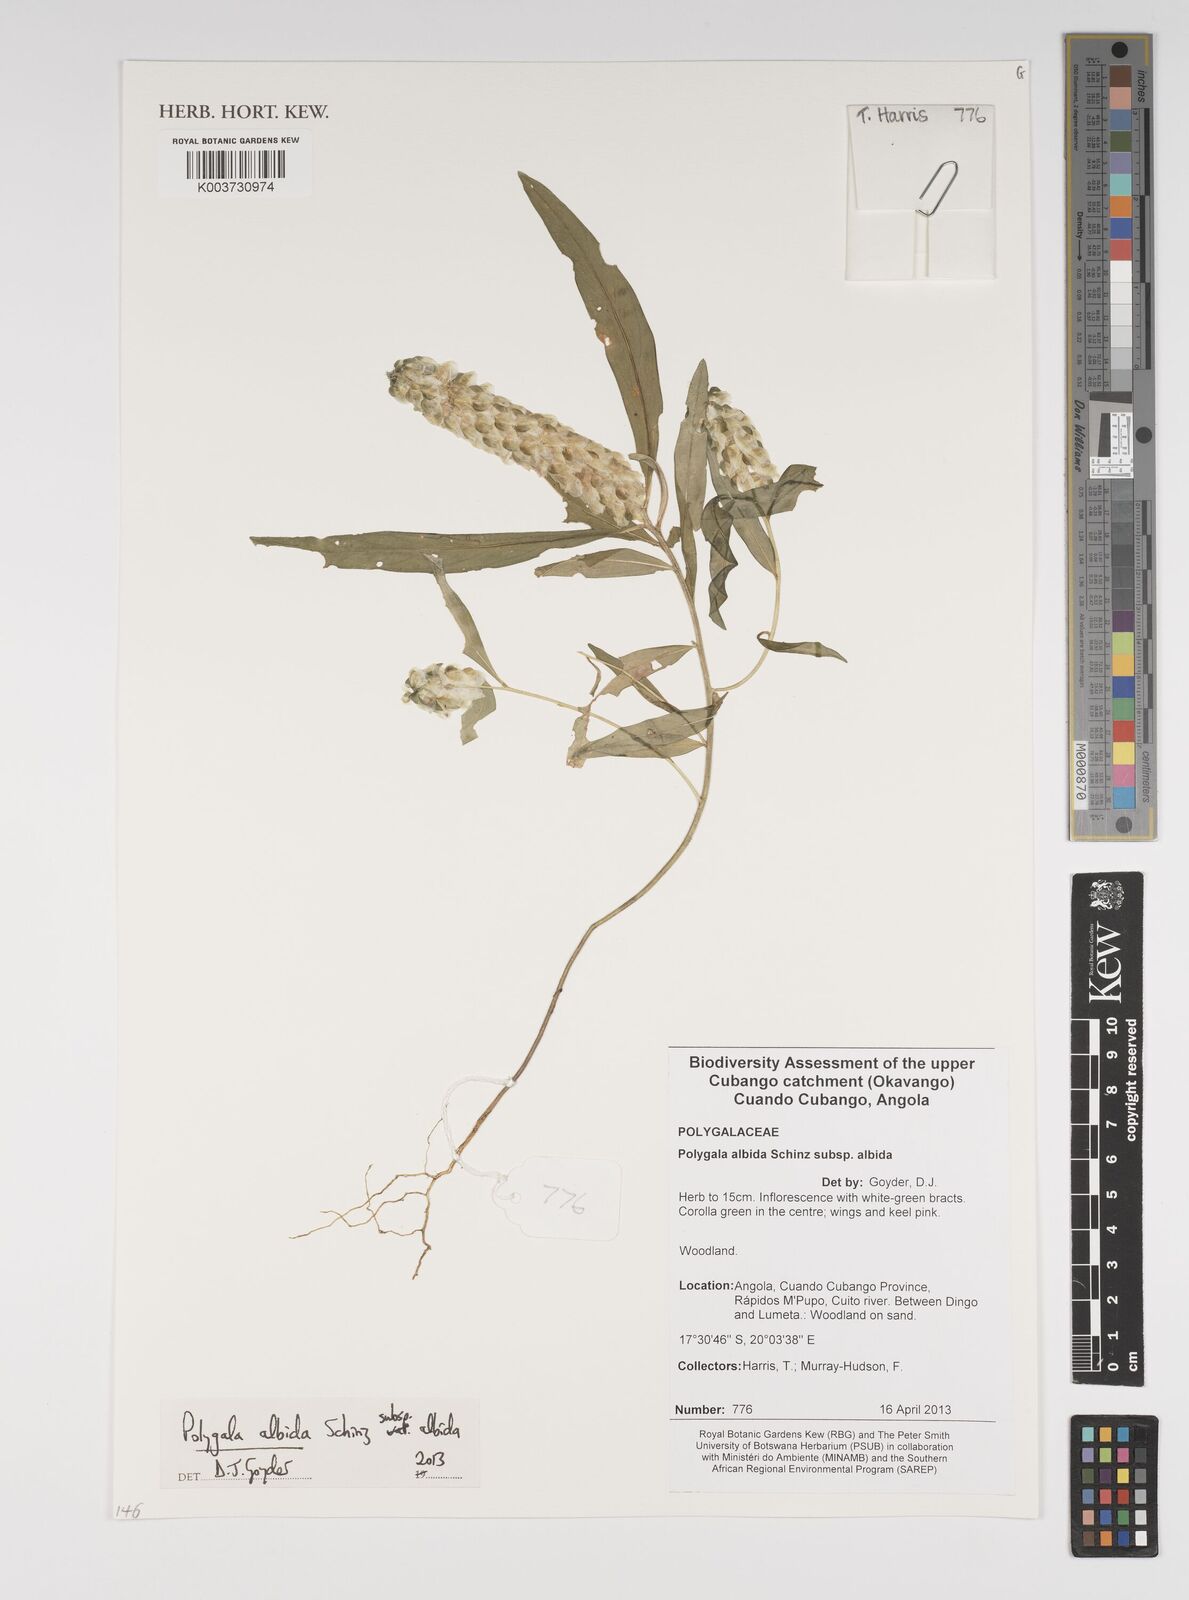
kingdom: Plantae
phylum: Tracheophyta
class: Magnoliopsida
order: Fabales
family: Polygalaceae
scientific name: Polygalaceae
